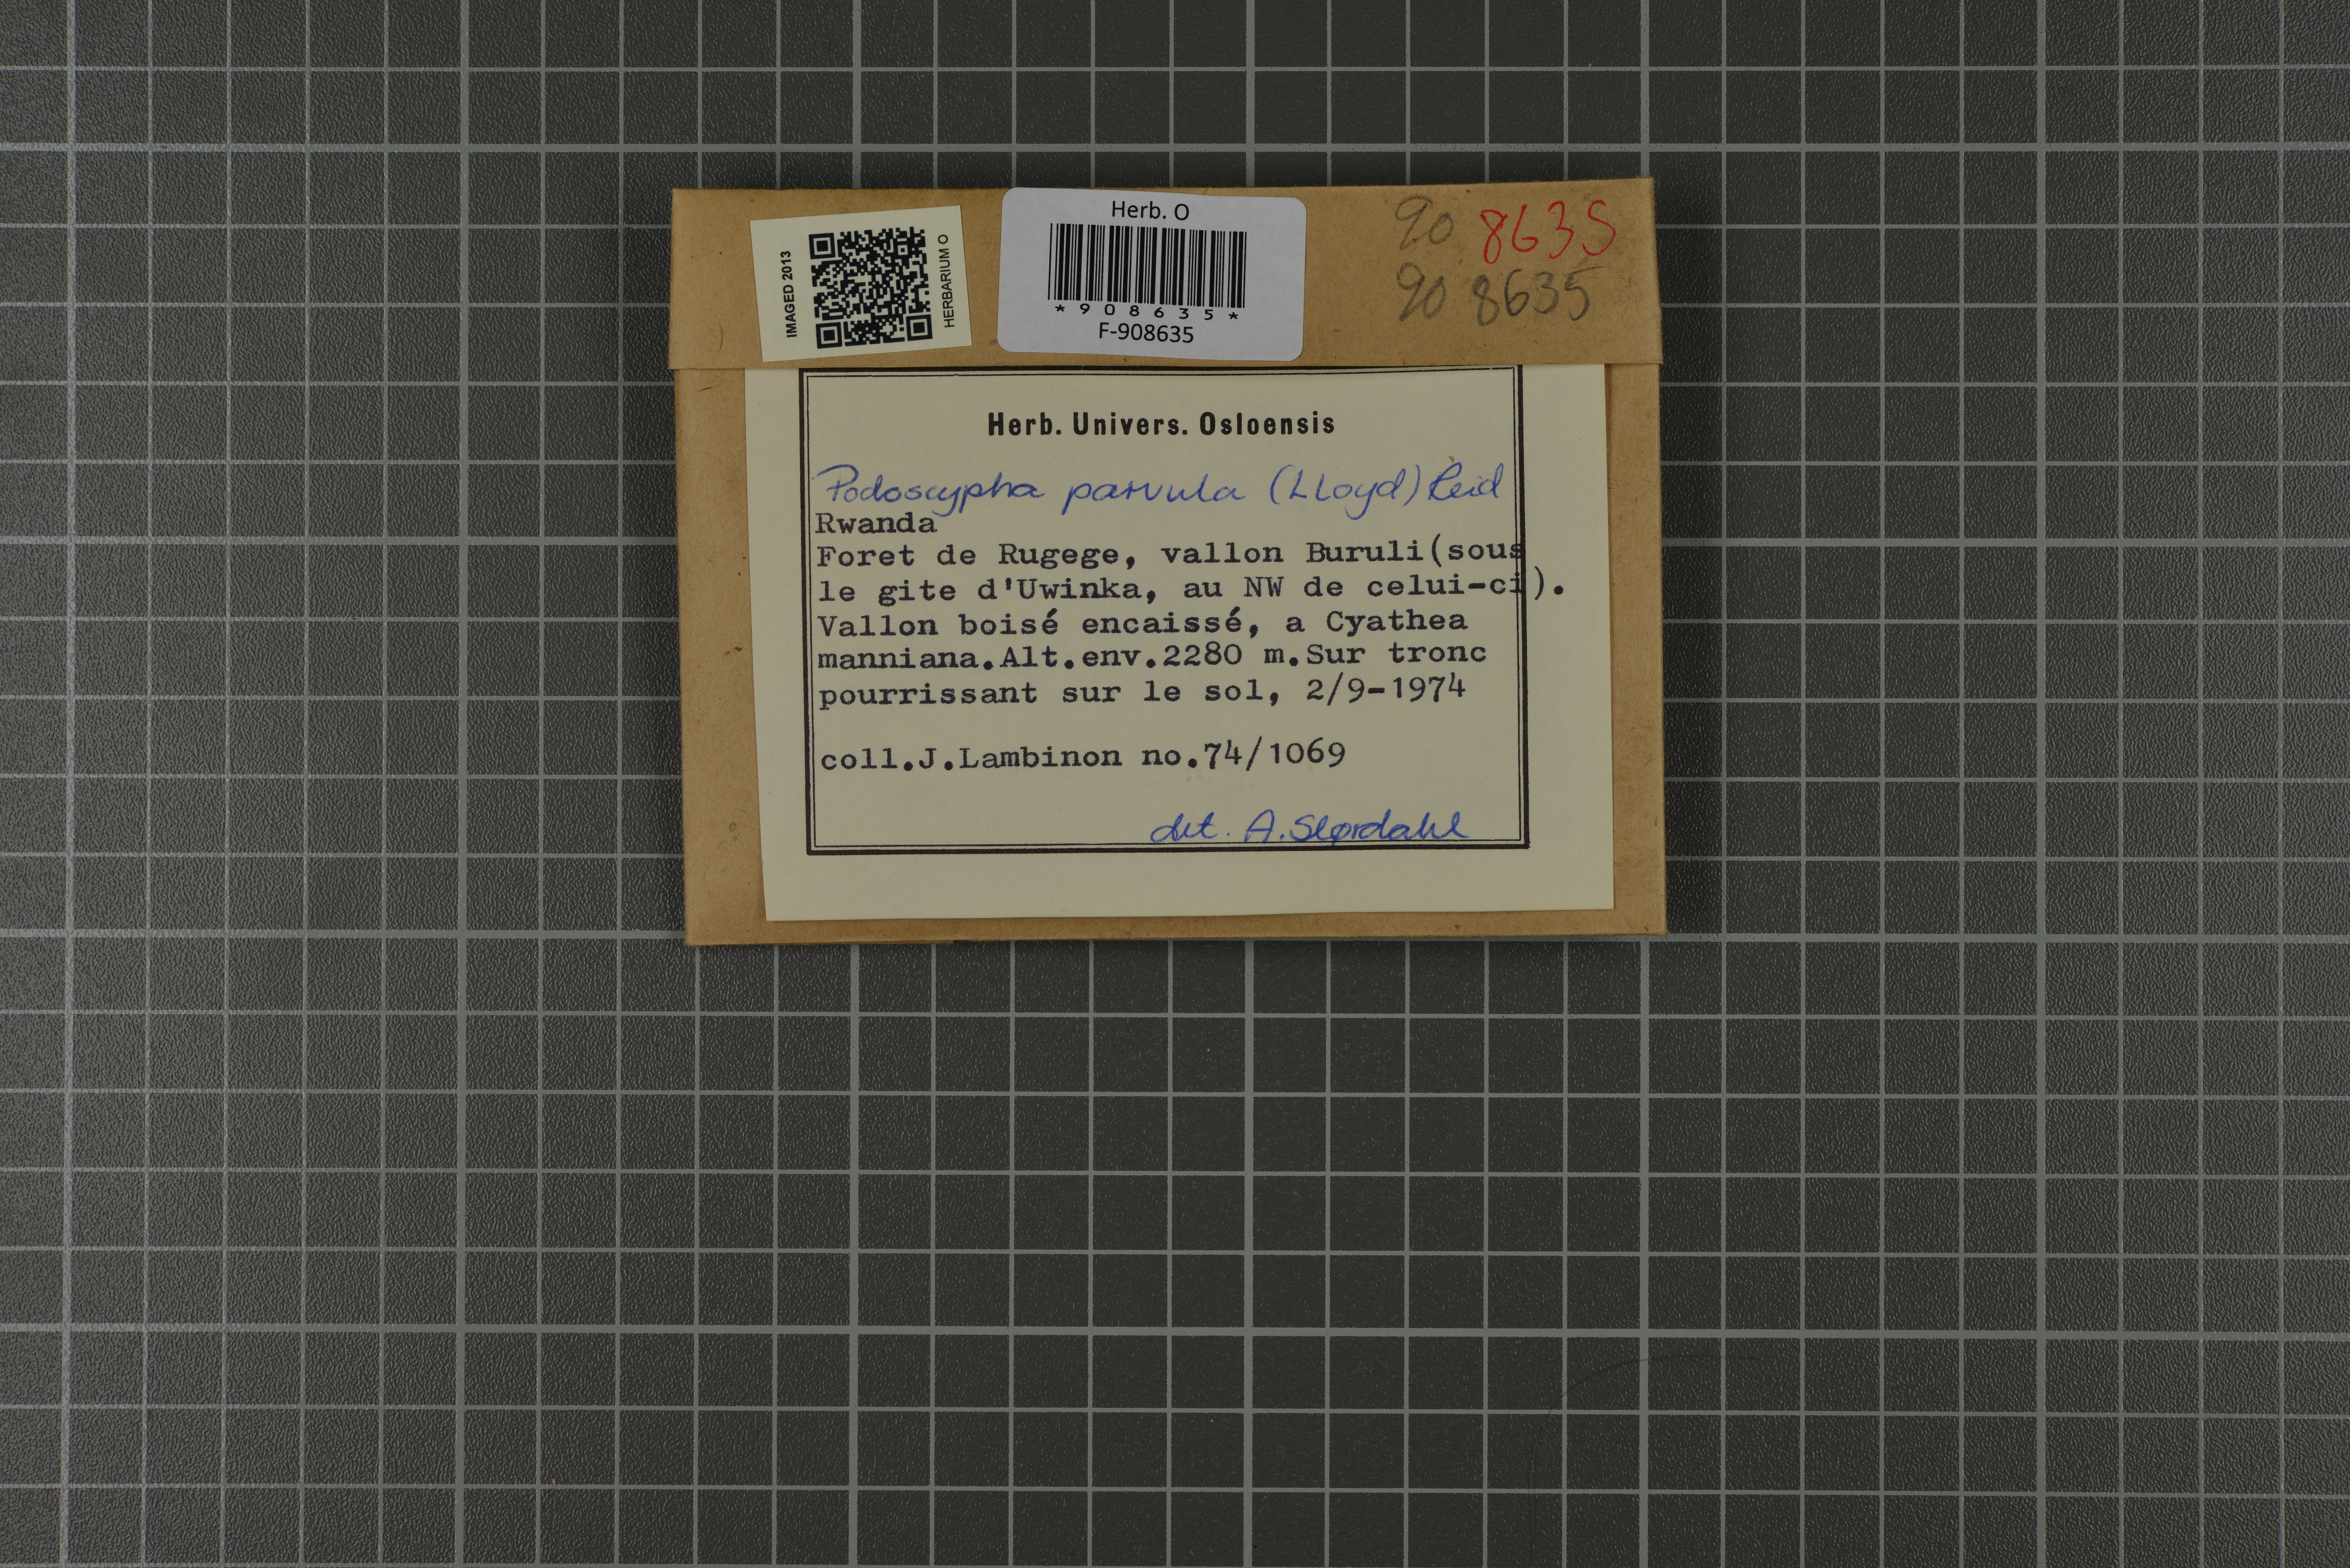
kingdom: Fungi
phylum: Basidiomycota
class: Agaricomycetes
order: Polyporales
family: Podoscyphaceae
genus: Podoscypha
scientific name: Podoscypha parvula
